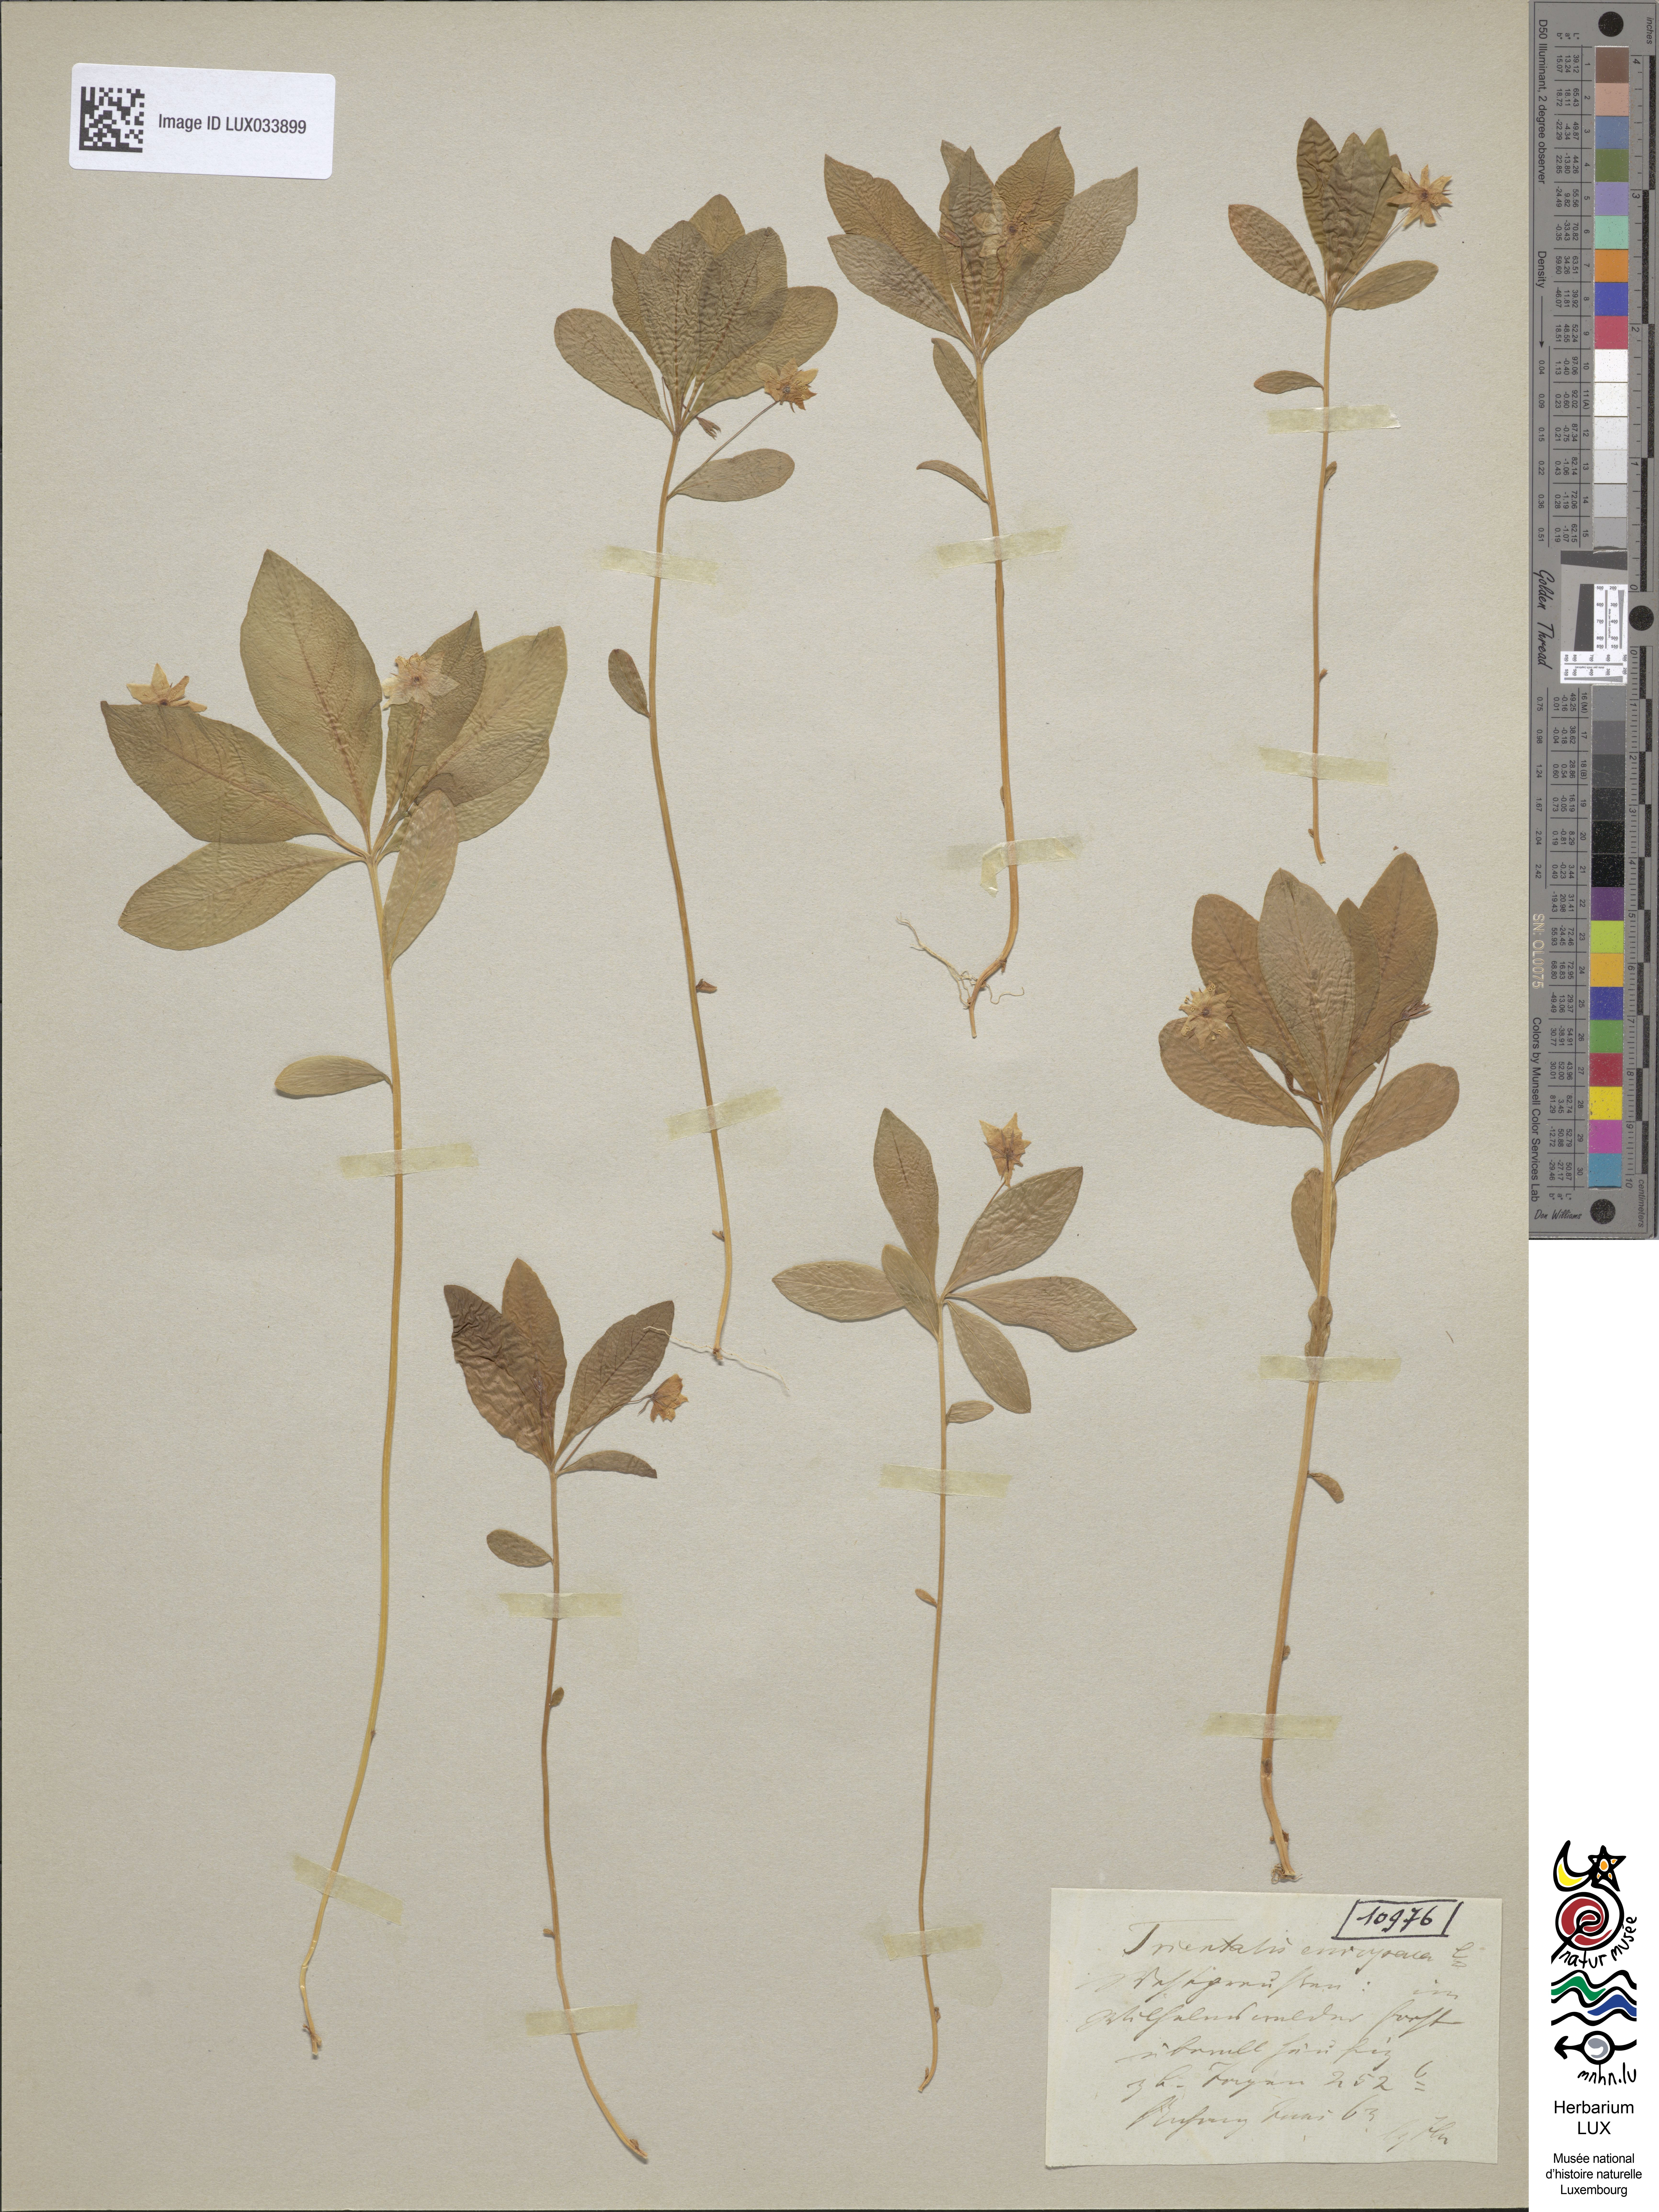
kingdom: Plantae
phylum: Tracheophyta
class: Magnoliopsida
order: Ericales
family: Primulaceae
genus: Lysimachia
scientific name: Lysimachia europaea
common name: Arctic starflower
